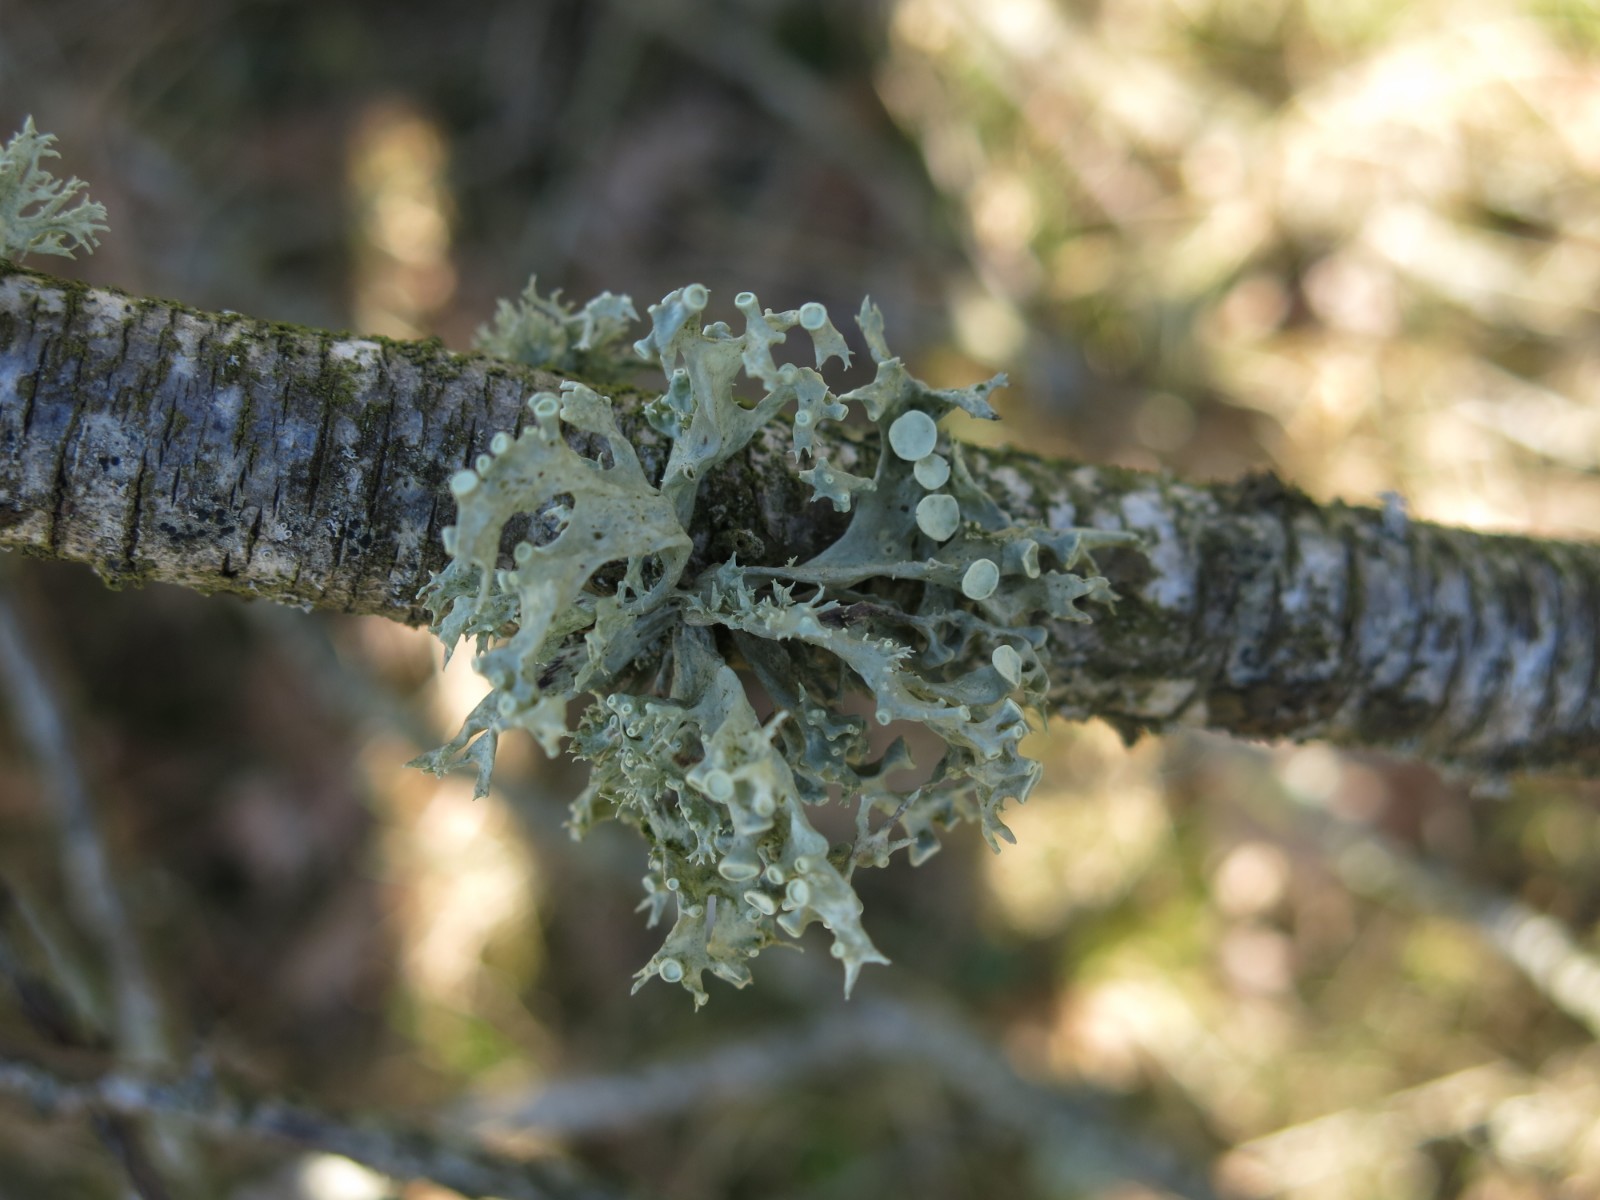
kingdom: Fungi
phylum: Ascomycota
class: Lecanoromycetes
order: Lecanorales
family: Ramalinaceae
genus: Ramalina
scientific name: Ramalina fastigiata
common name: tue-grenlav
